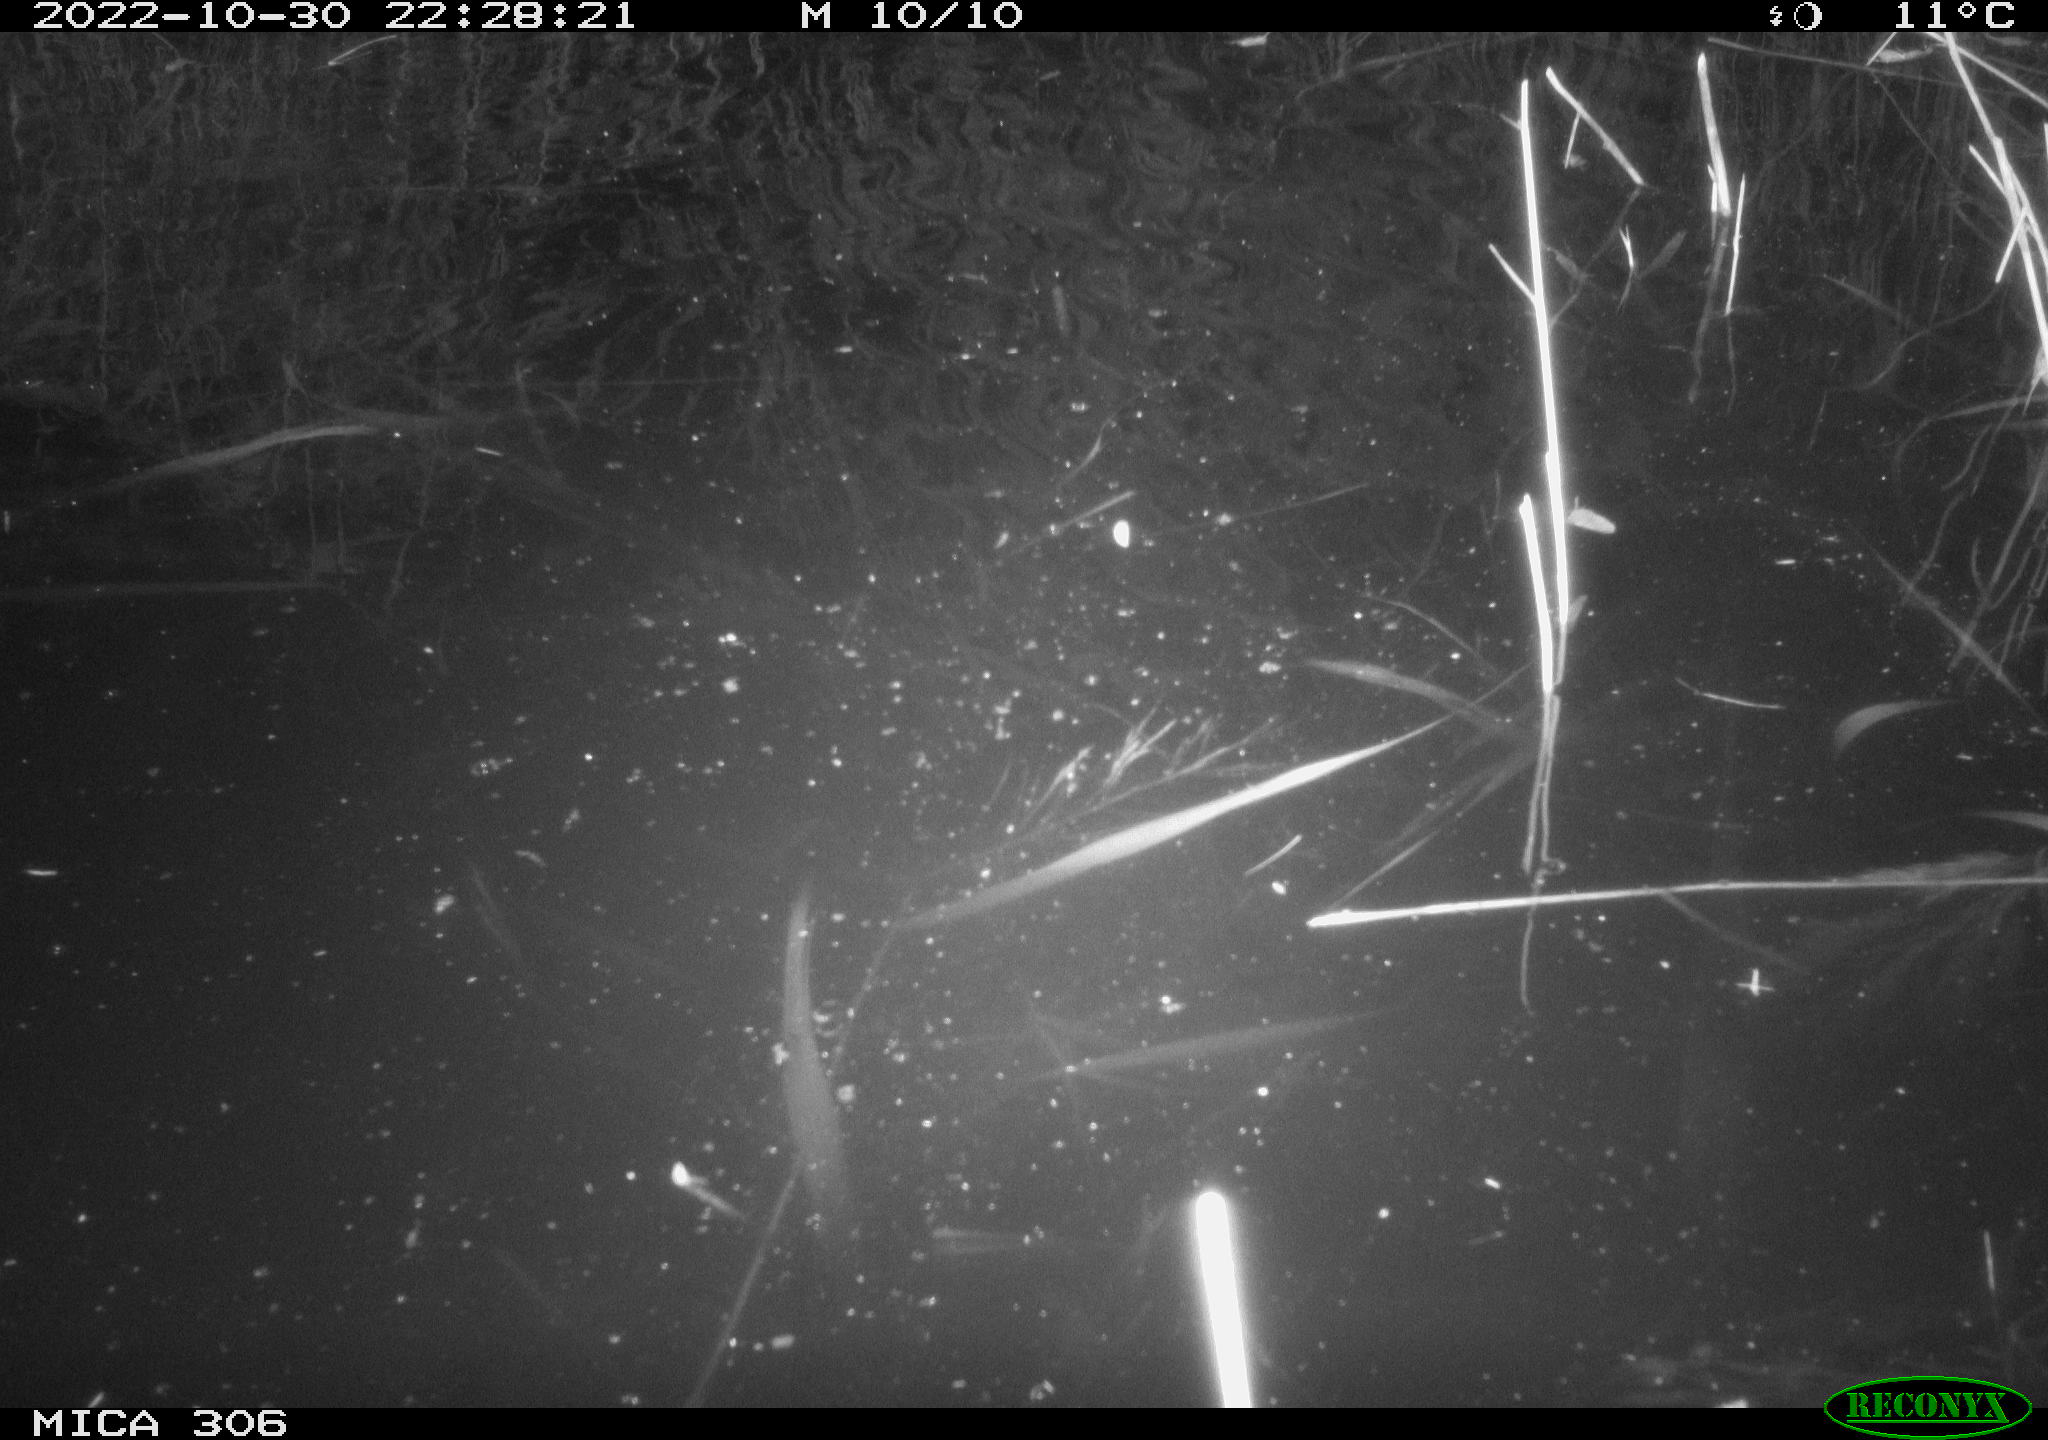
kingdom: Animalia
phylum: Chordata
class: Mammalia
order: Rodentia
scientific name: Rodentia
